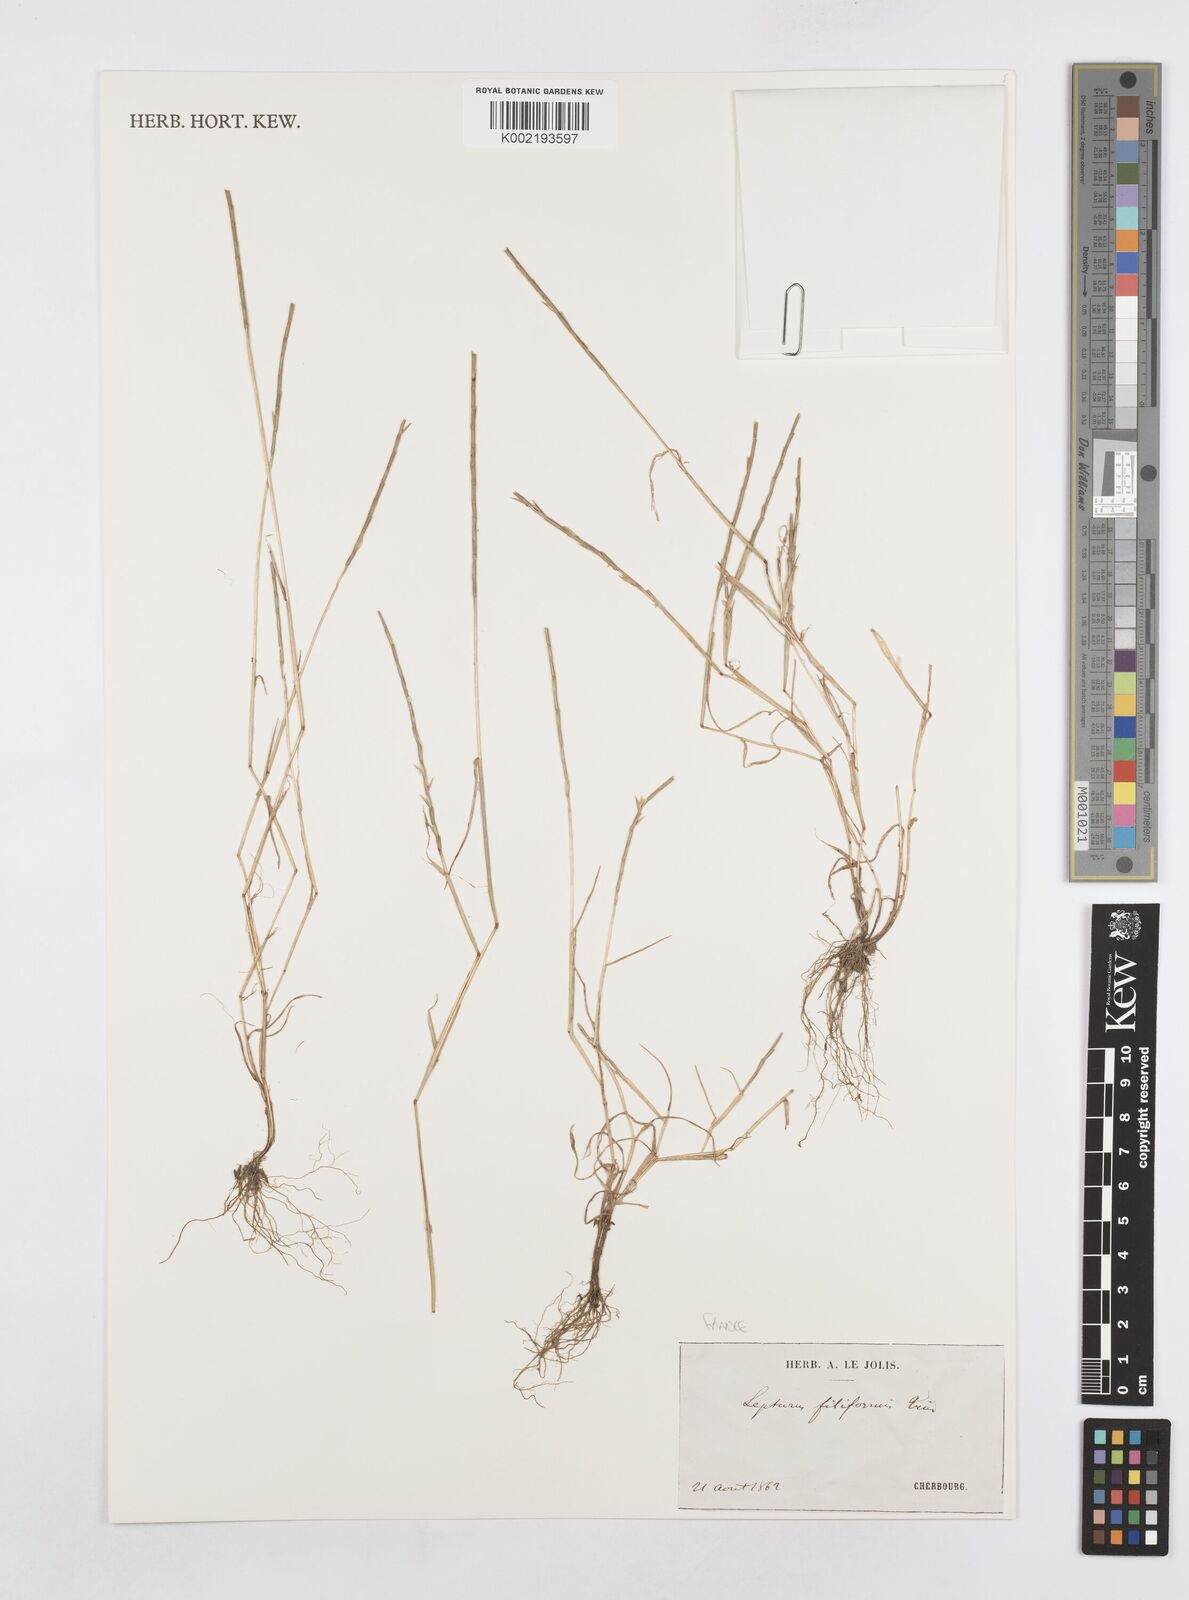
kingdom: Plantae
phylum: Tracheophyta
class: Liliopsida
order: Poales
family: Poaceae
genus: Parapholis
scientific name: Parapholis filiformis
